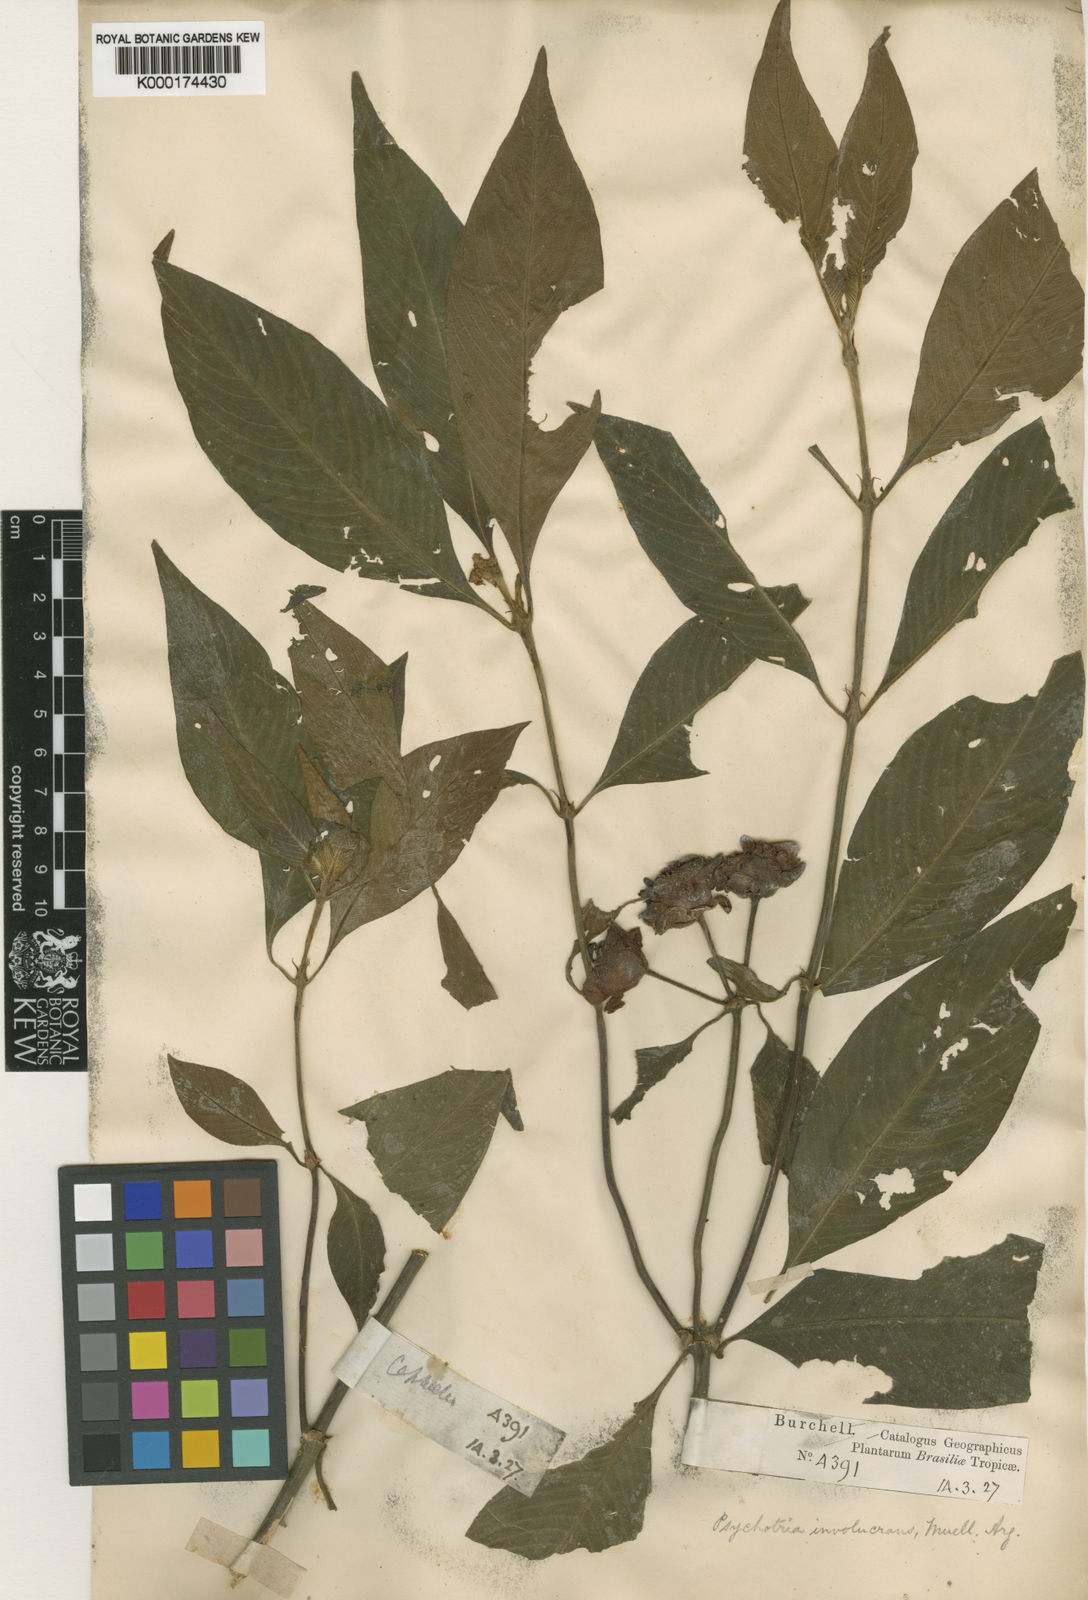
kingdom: Plantae
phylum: Tracheophyta
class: Magnoliopsida
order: Gentianales
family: Rubiaceae
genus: Psychotria
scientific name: Psychotria
